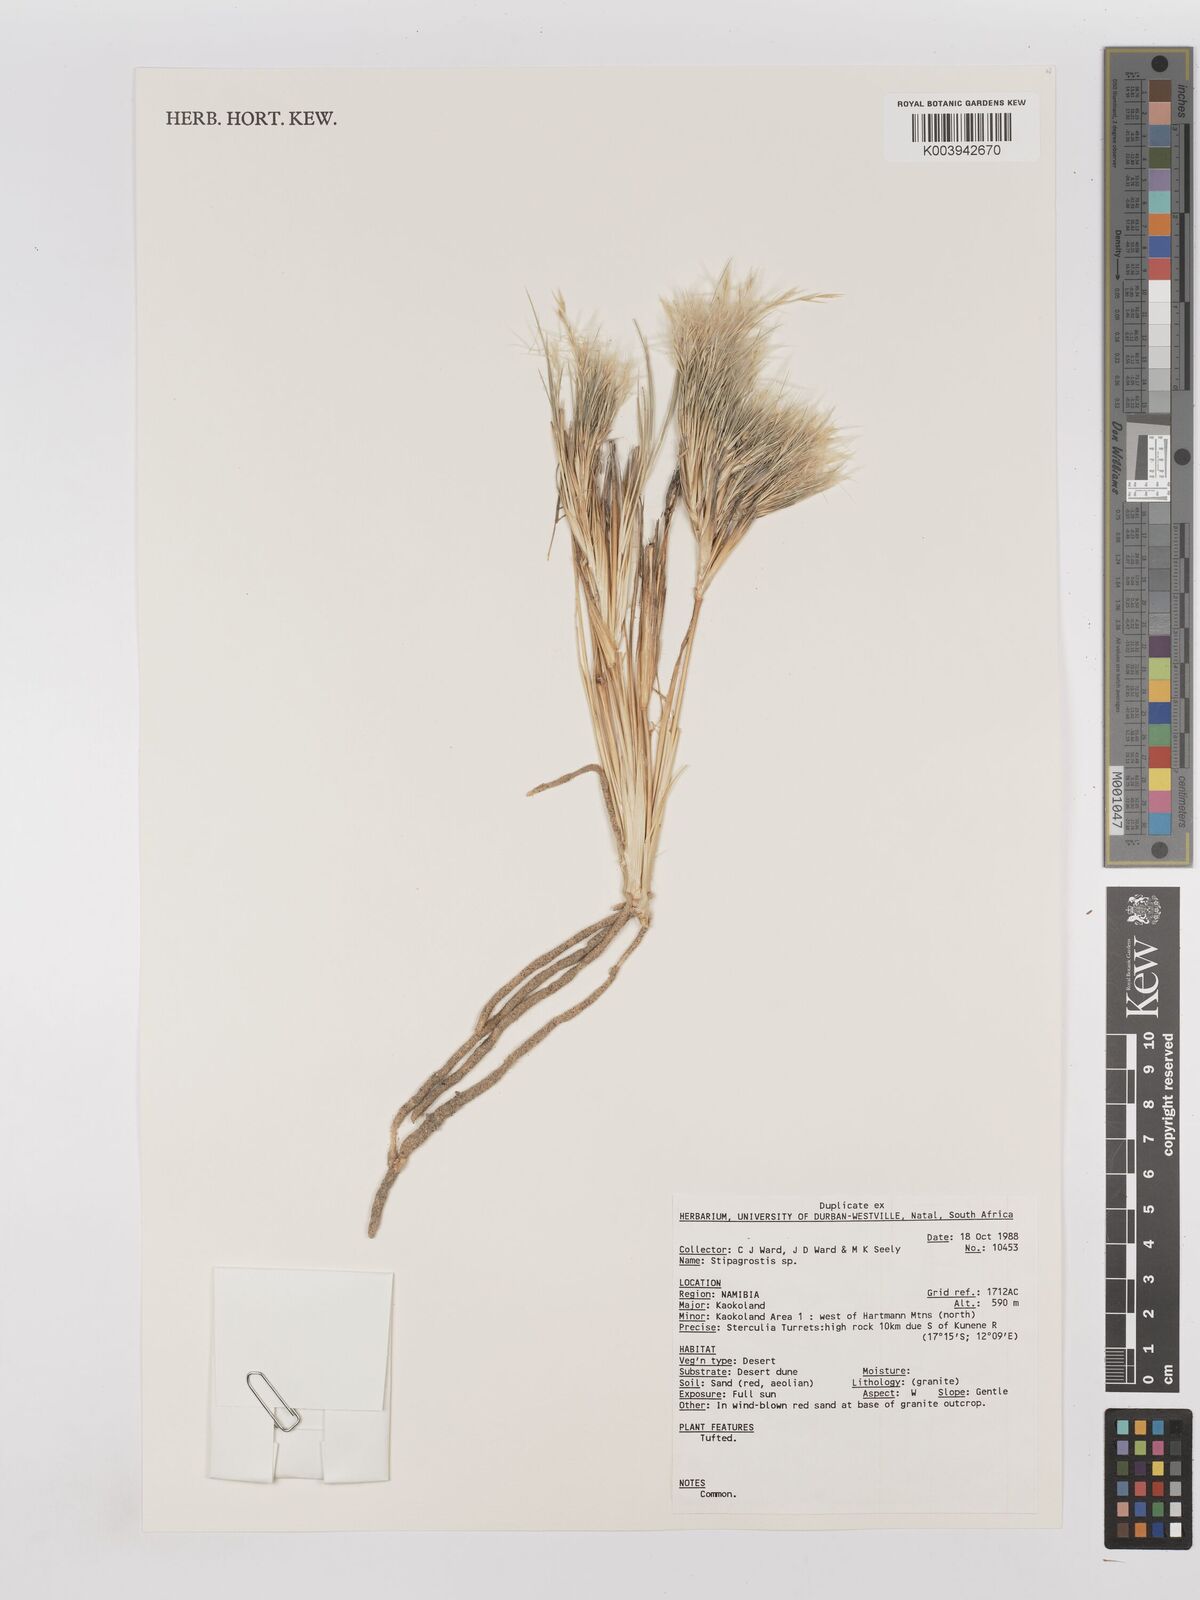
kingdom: Plantae
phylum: Tracheophyta
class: Liliopsida
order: Poales
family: Poaceae
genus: Stipagrostis
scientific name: Stipagrostis
